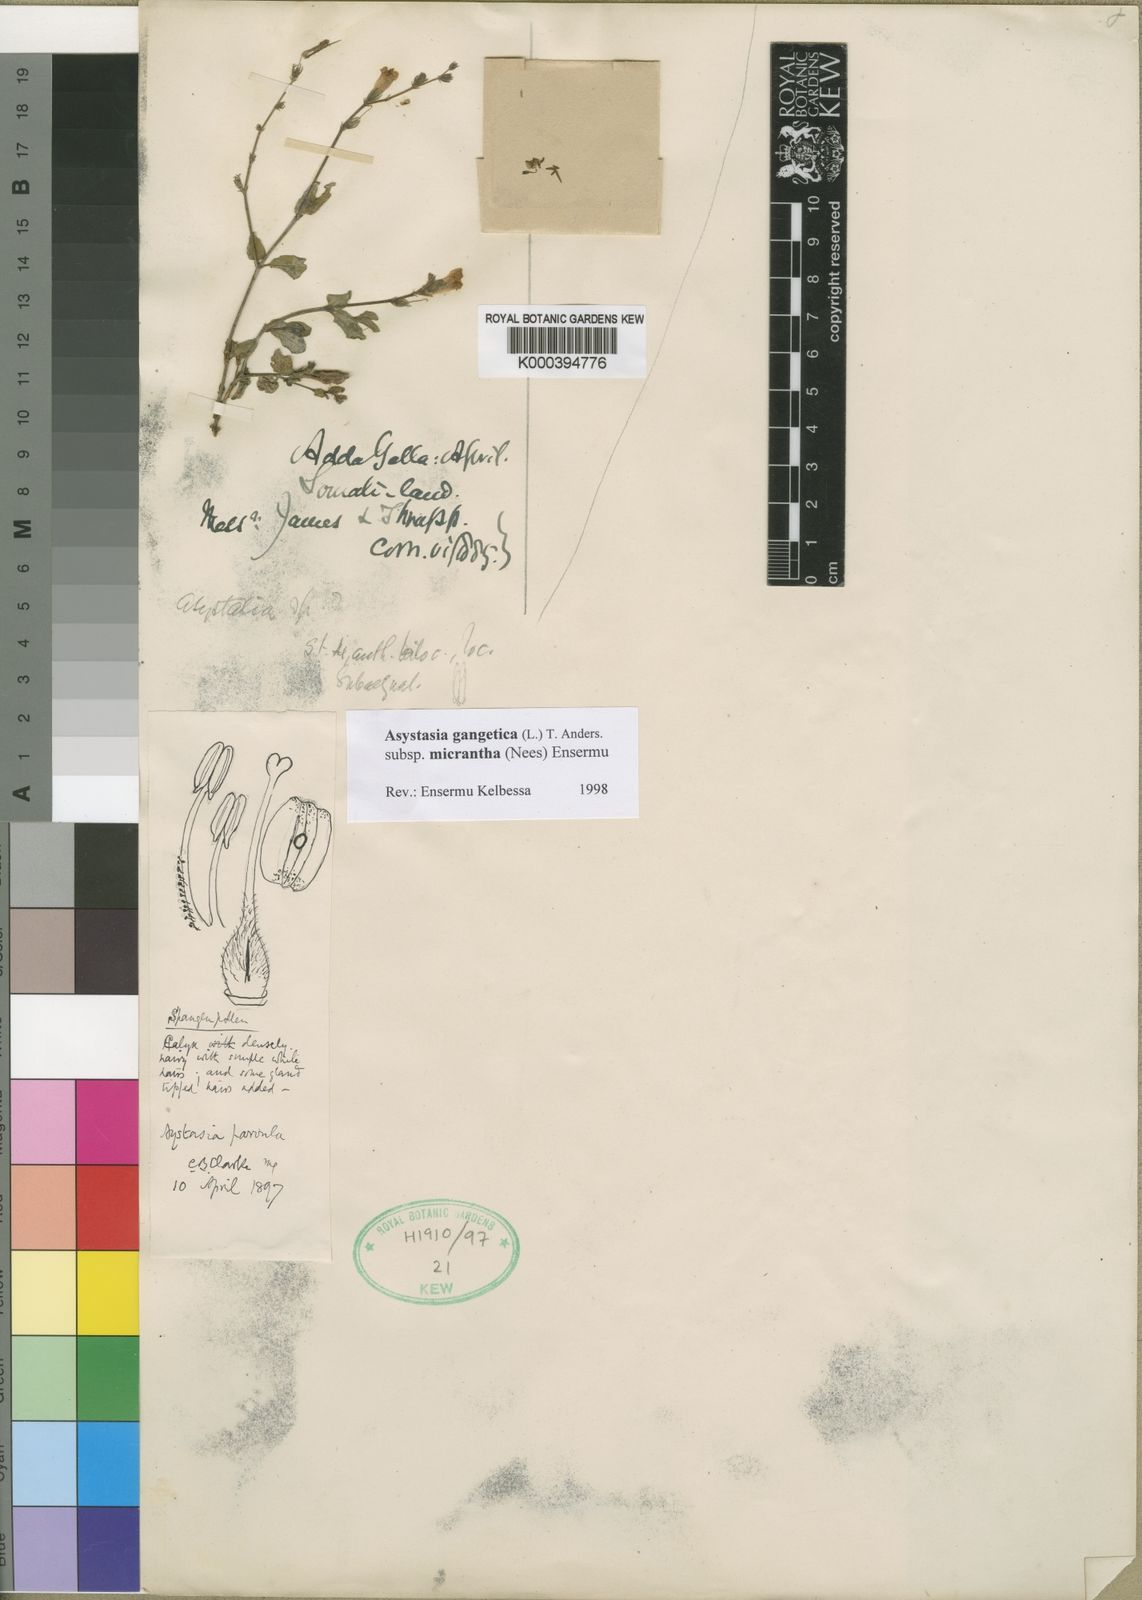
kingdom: Plantae
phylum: Tracheophyta
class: Magnoliopsida
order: Lamiales
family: Acanthaceae
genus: Asystasia
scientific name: Asystasia gangetica
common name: Chinese violet
